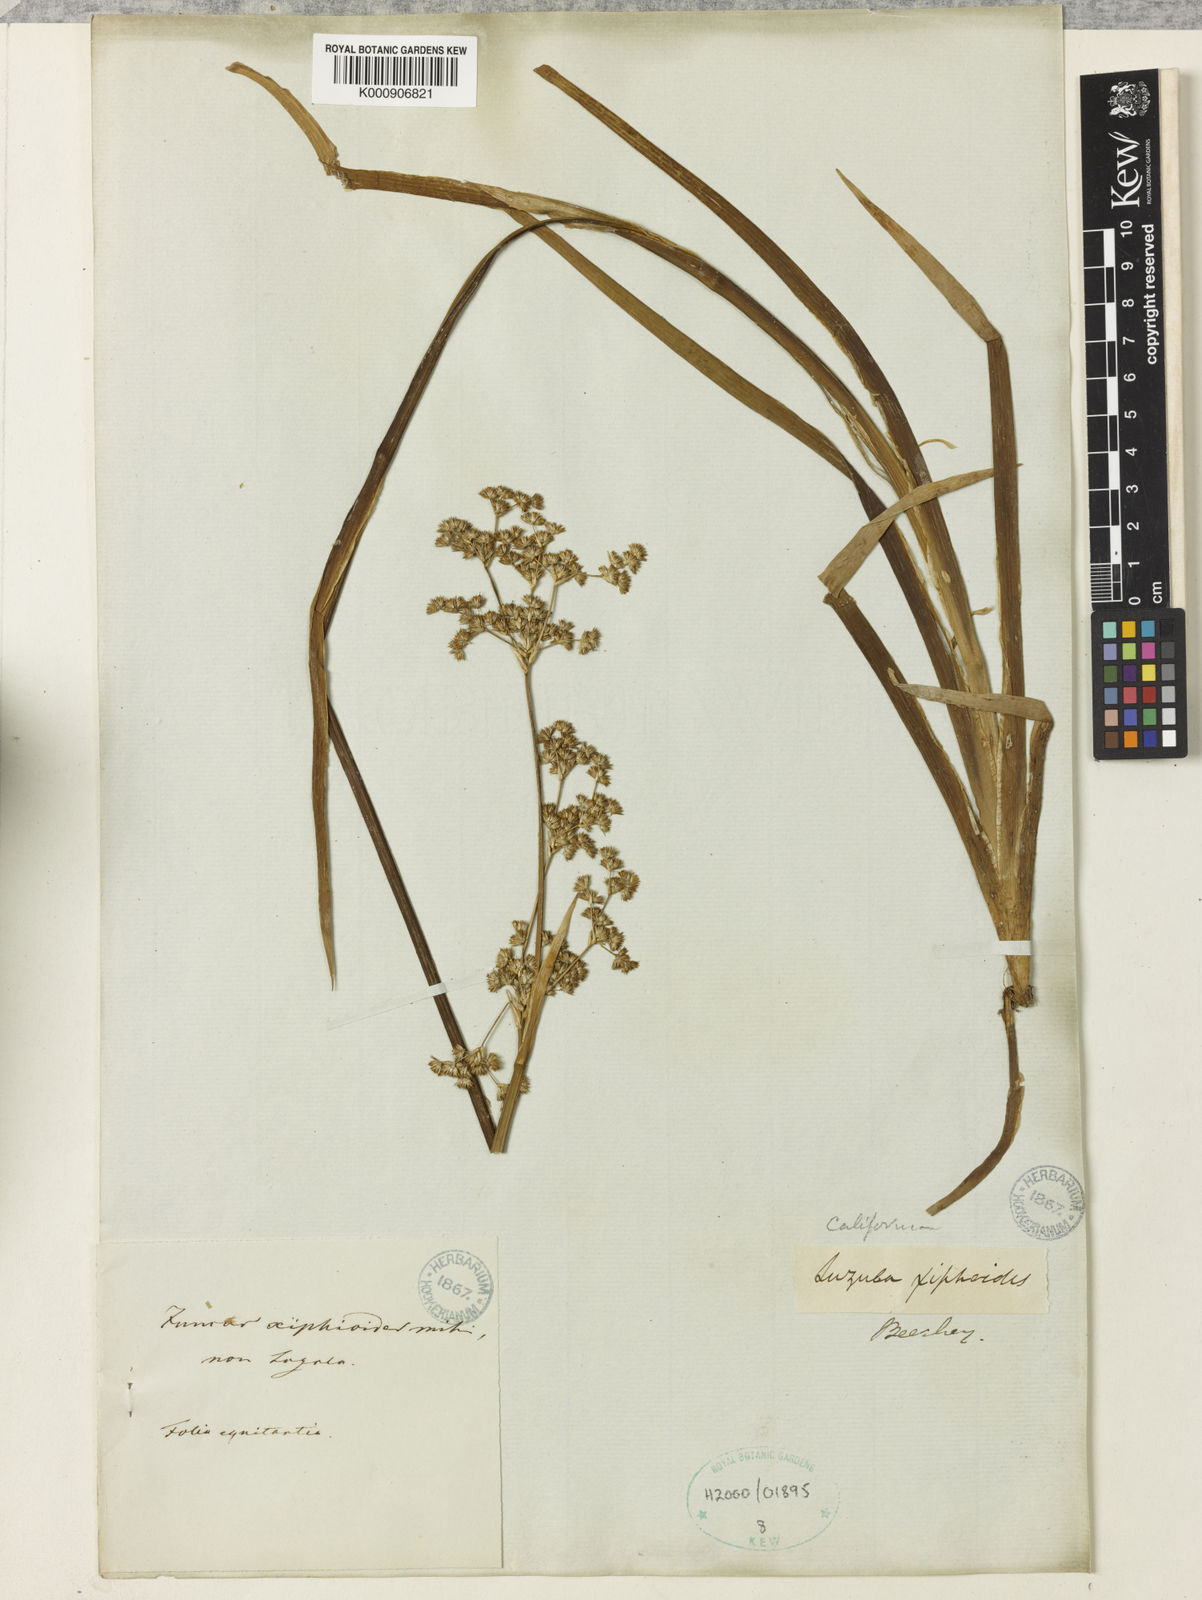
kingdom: Plantae
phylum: Tracheophyta
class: Liliopsida
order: Poales
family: Juncaceae
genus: Juncus
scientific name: Juncus xiphioides
